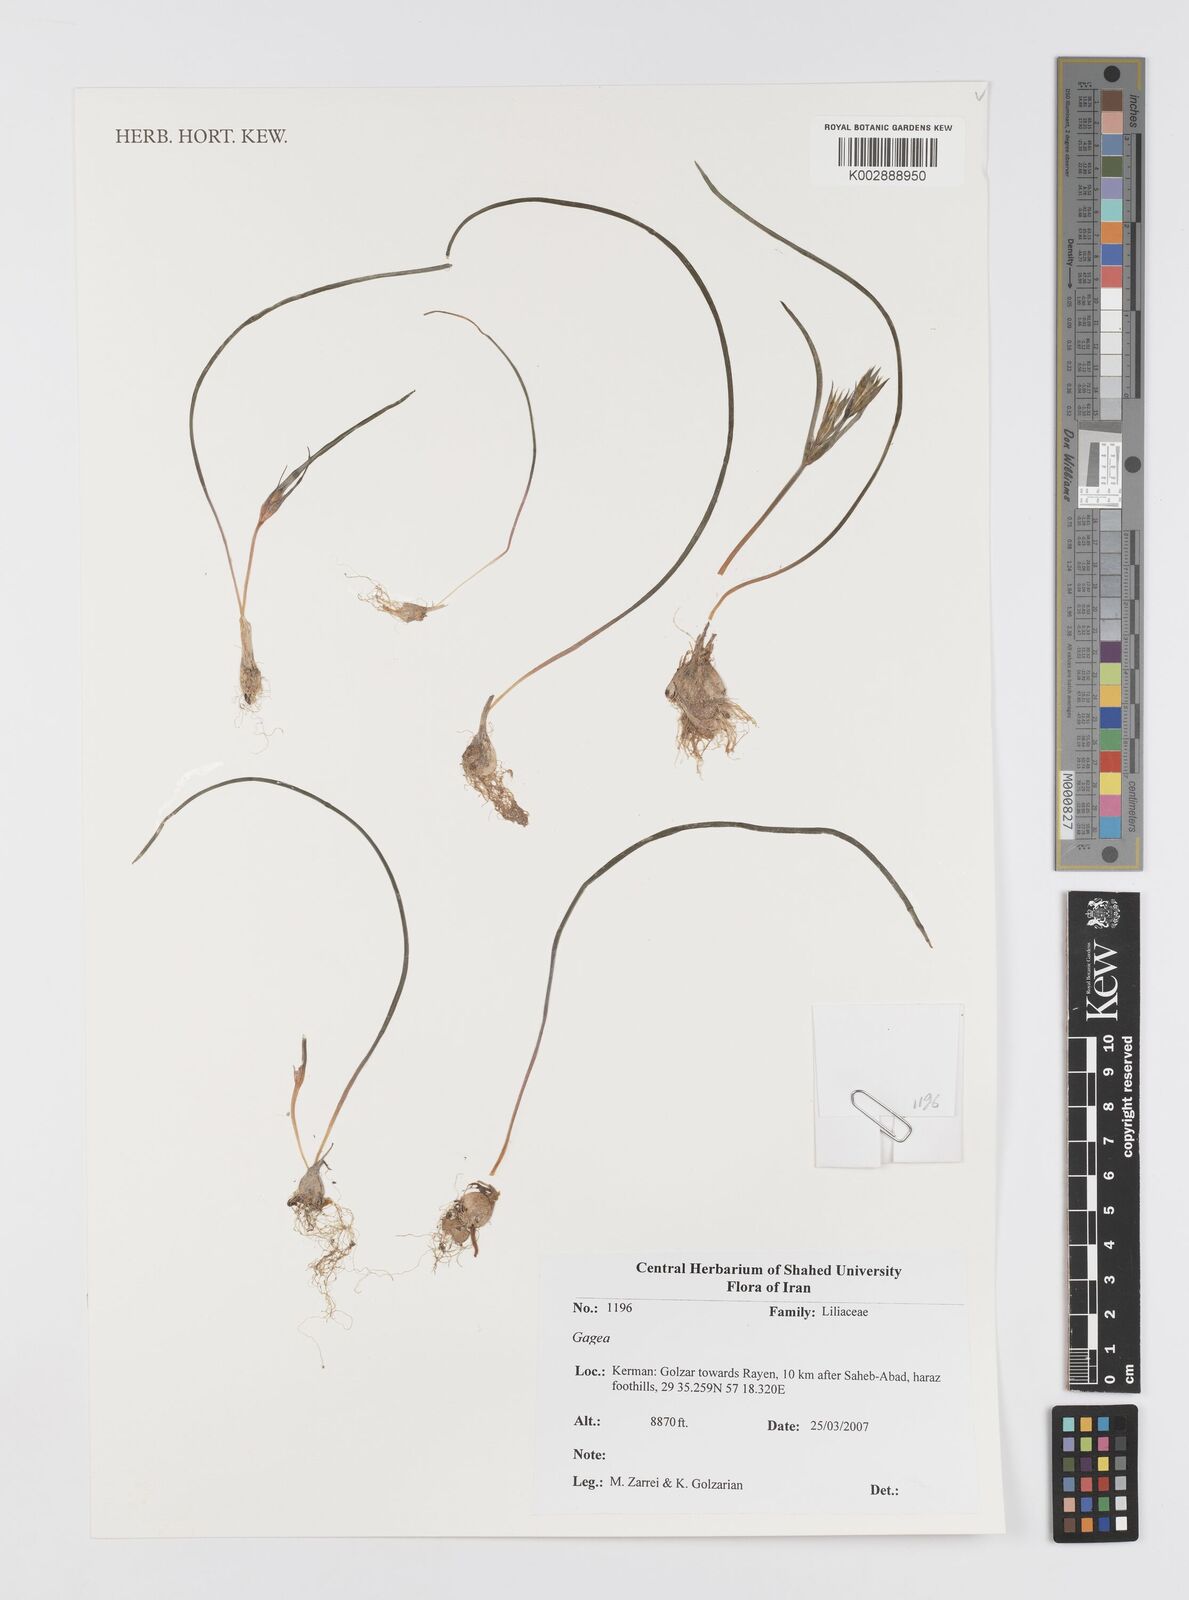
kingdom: Plantae
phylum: Tracheophyta
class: Liliopsida
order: Liliales
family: Liliaceae
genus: Gagea
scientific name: Gagea
